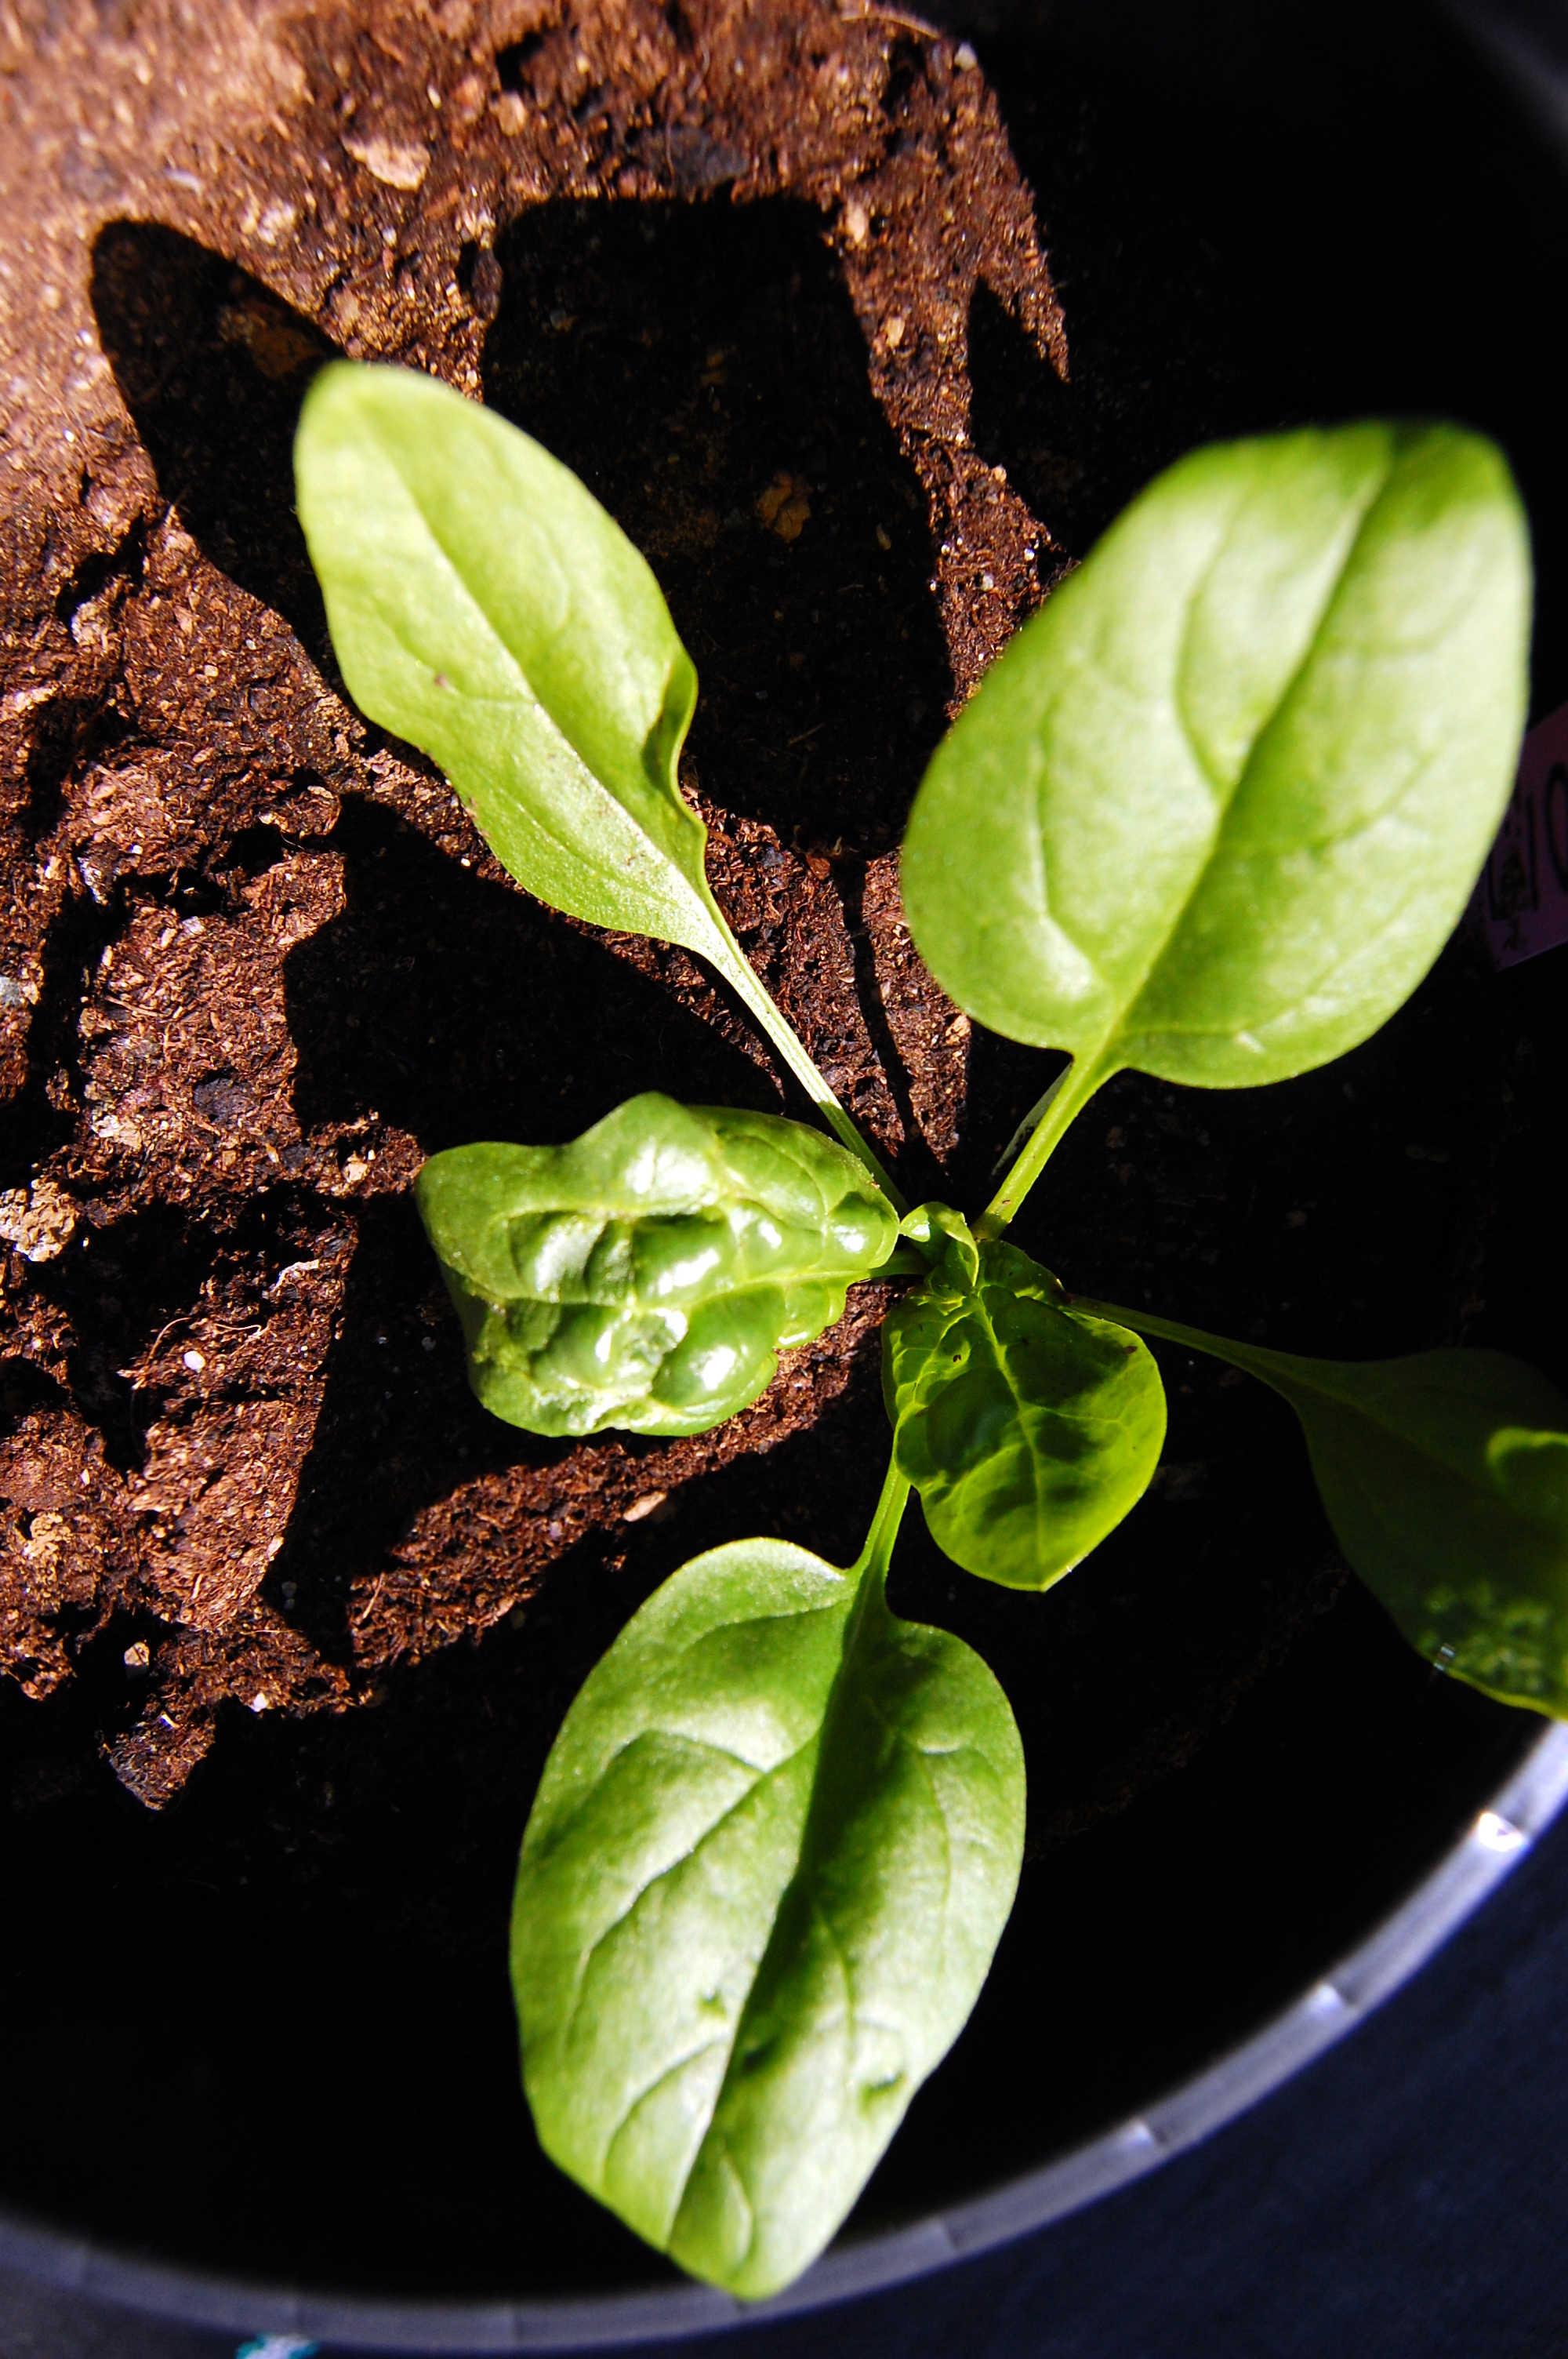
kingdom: Plantae
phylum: Tracheophyta
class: Magnoliopsida
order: Caryophyllales
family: Amaranthaceae
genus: Spinacia
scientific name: Spinacia oleracea
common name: Spinach
